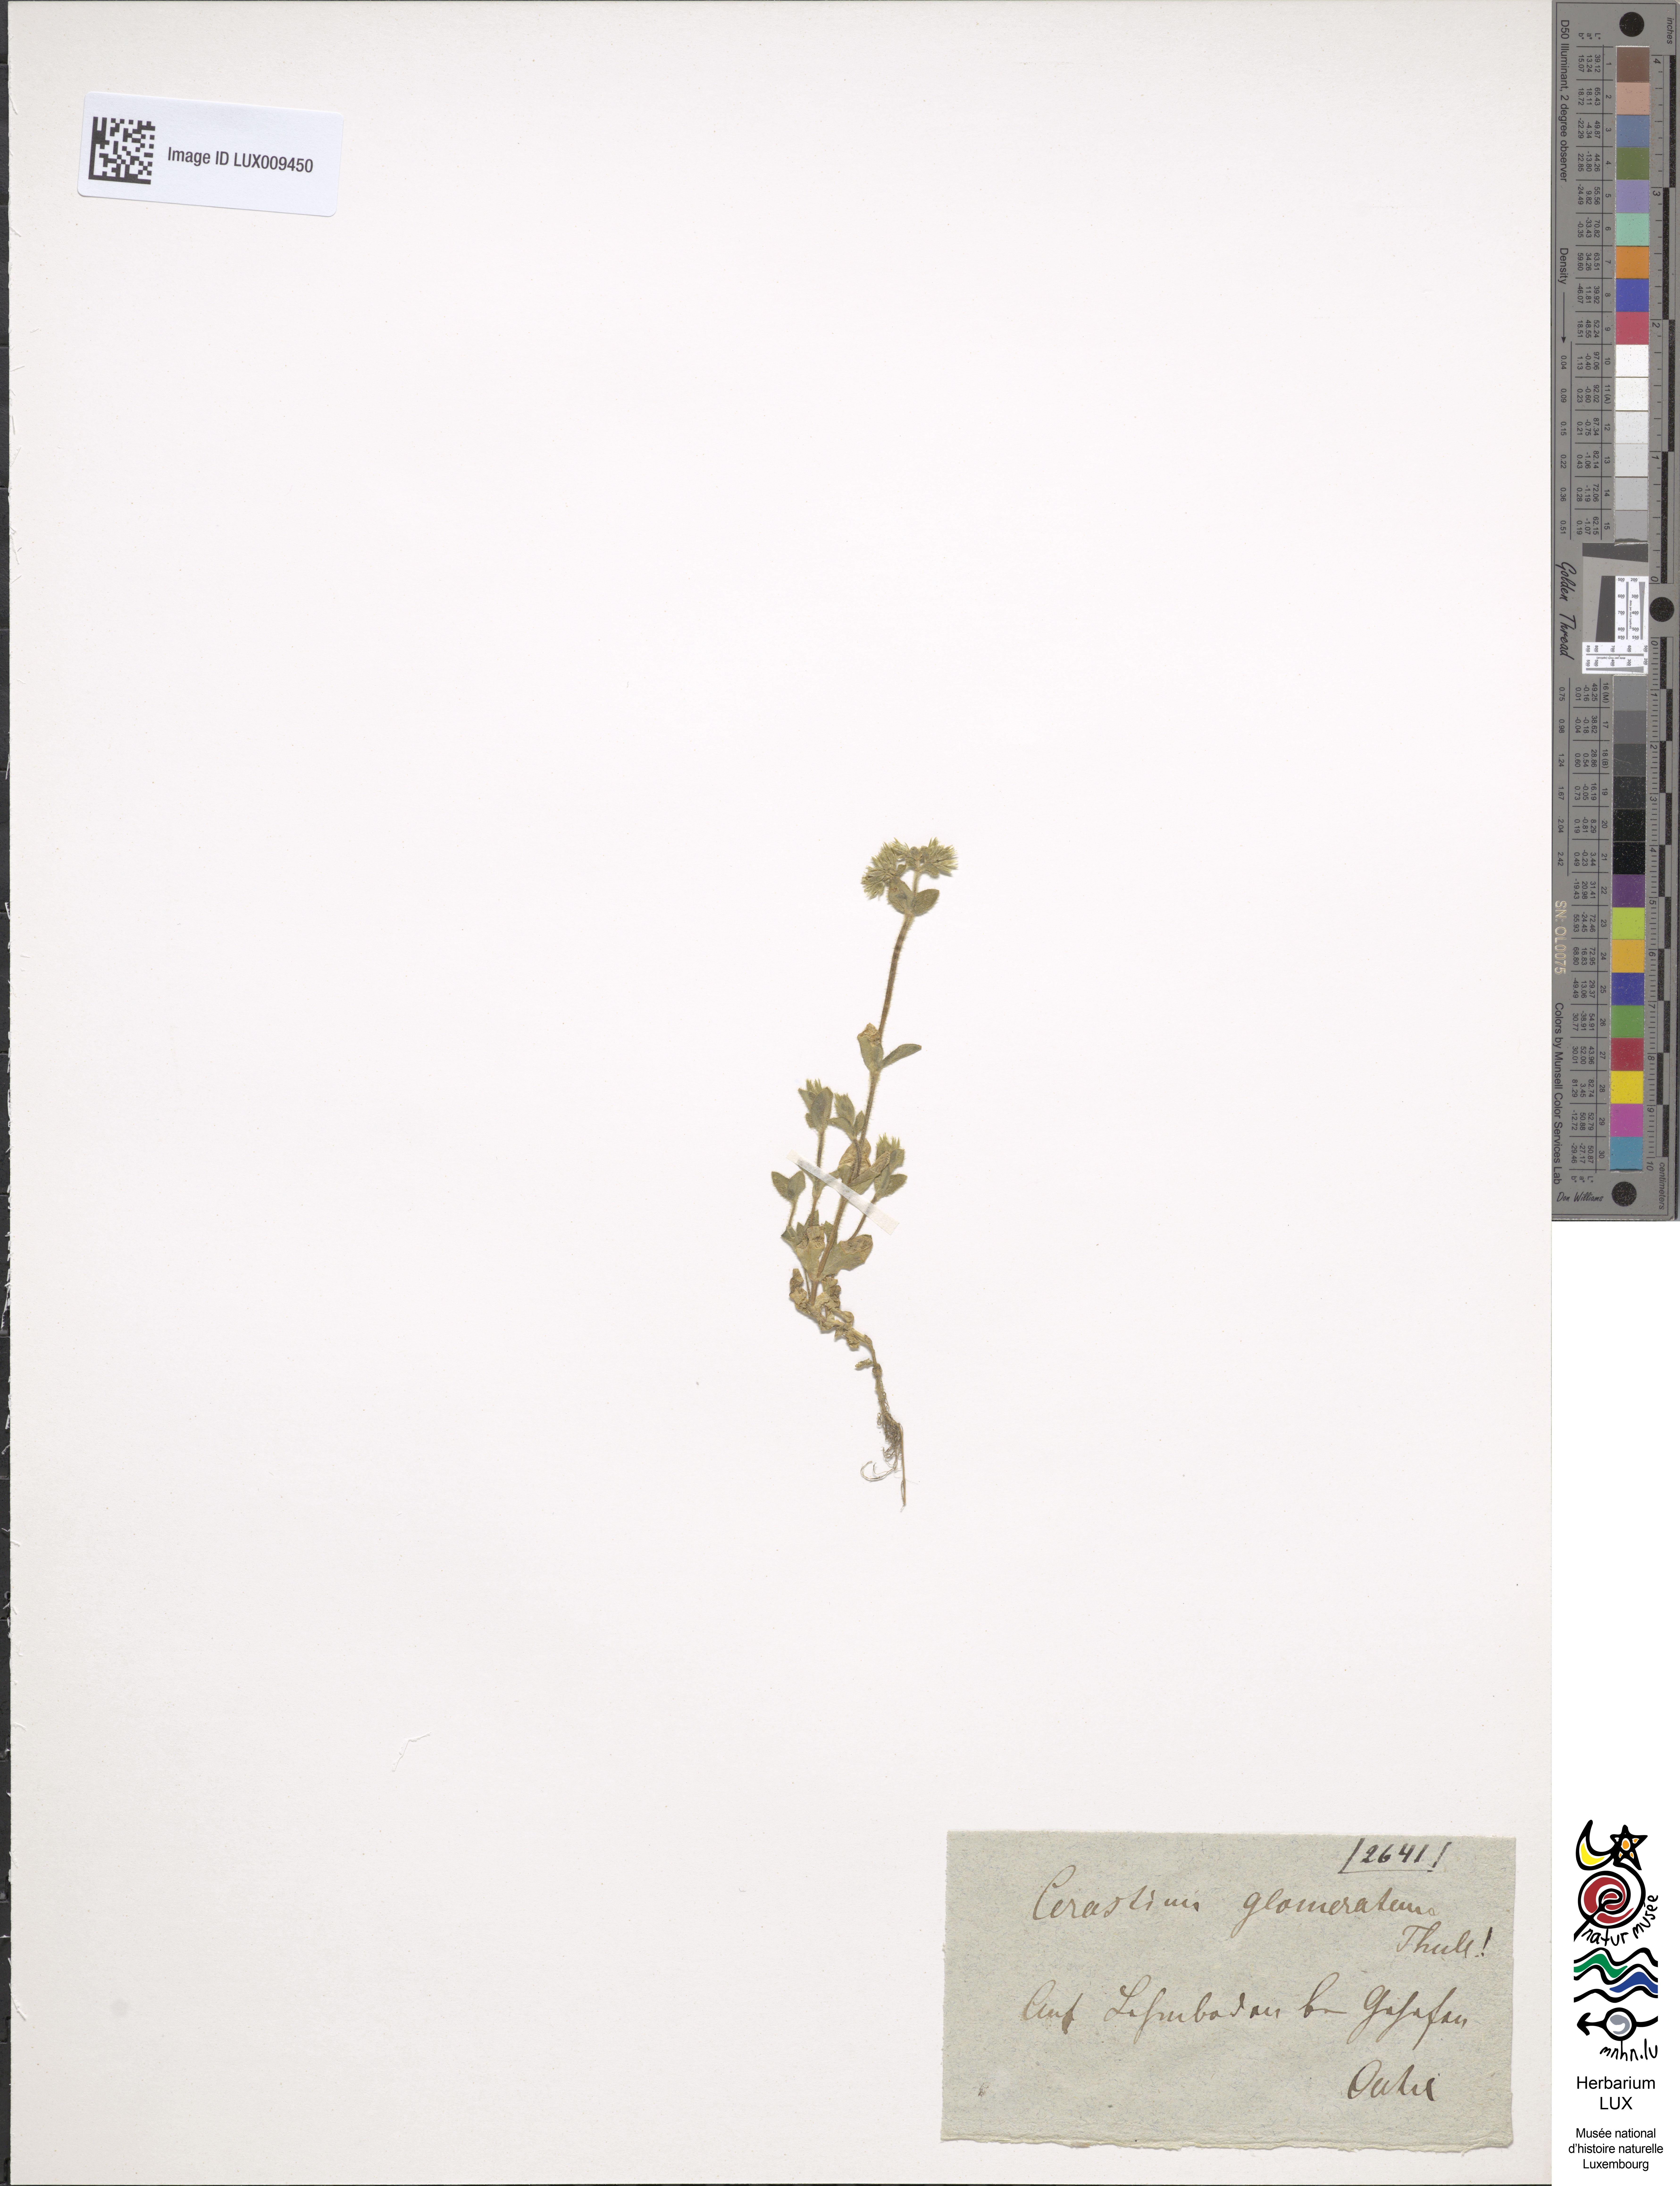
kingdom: Plantae
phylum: Tracheophyta
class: Magnoliopsida
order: Caryophyllales
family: Caryophyllaceae
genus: Cerastium
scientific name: Cerastium glomeratum
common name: Sticky chickweed
